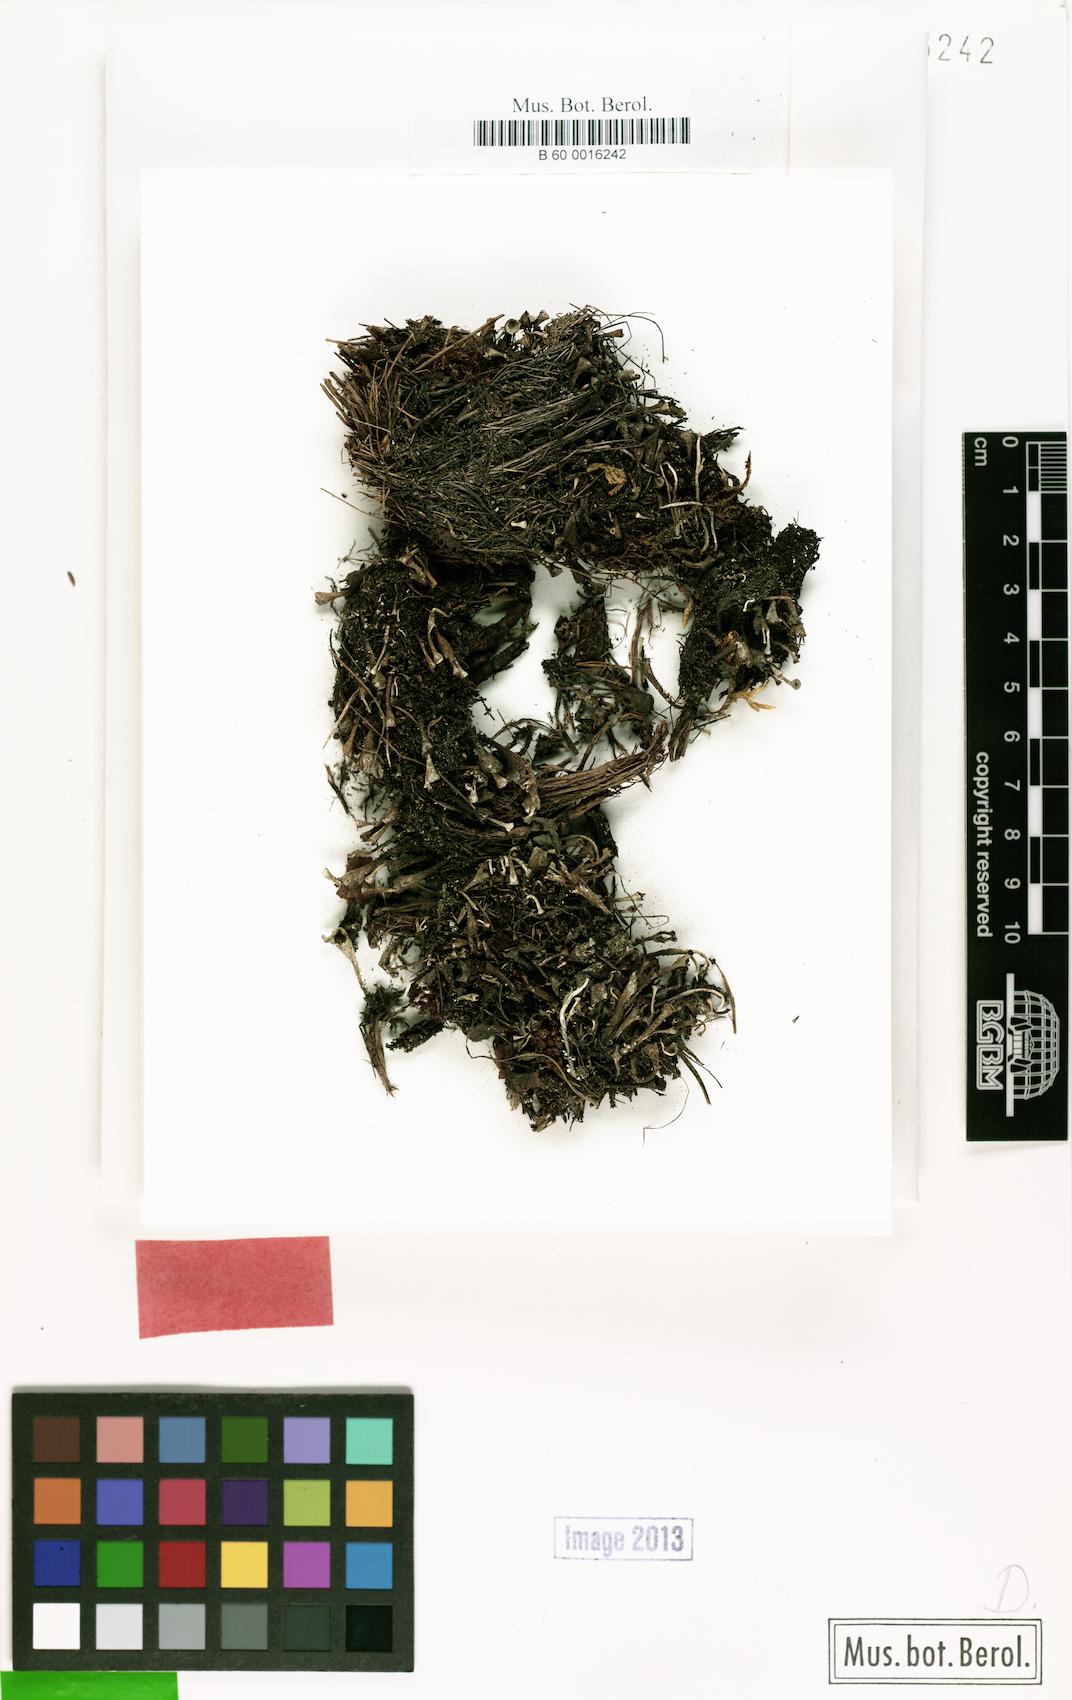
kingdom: Fungi
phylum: Ascomycota
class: Lecanoromycetes
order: Lecanorales
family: Cladoniaceae
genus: Cladonia
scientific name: Cladonia merochlorophaea
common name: Gritty pixie-cup lichen
